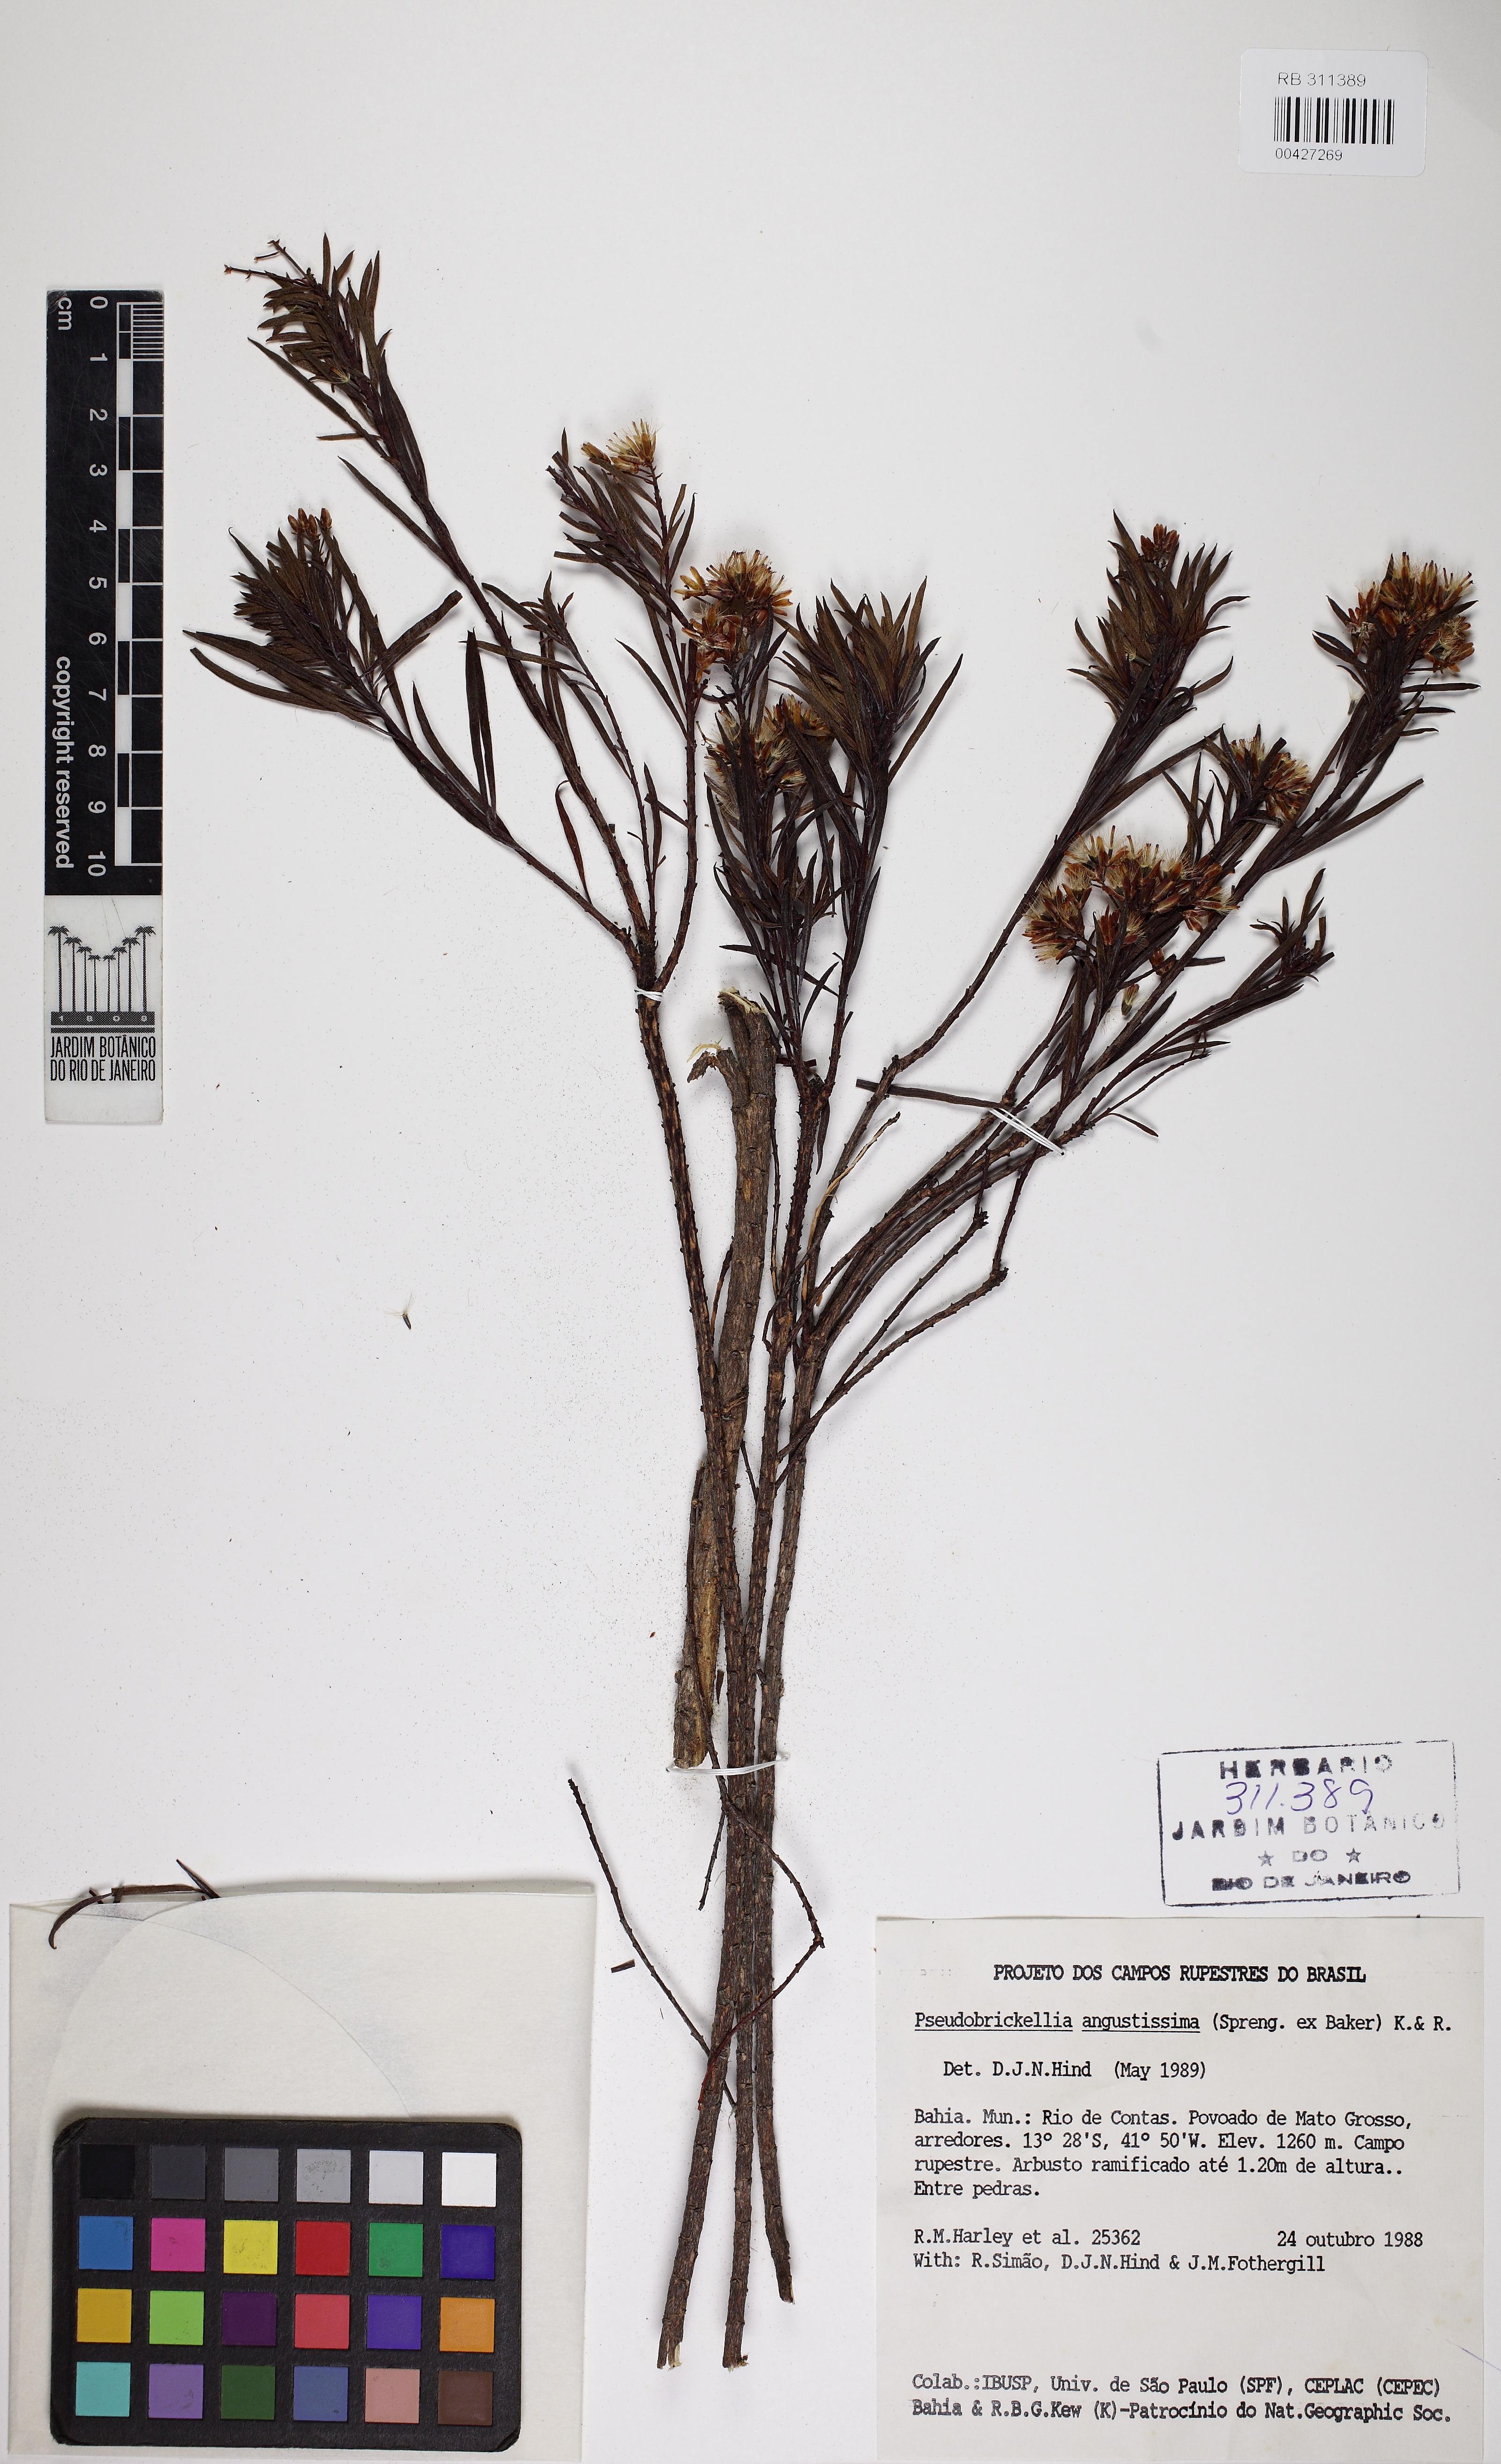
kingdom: Plantae
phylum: Tracheophyta
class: Magnoliopsida
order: Asterales
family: Asteraceae
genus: Pseudobrickellia
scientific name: Pseudobrickellia angustissima
